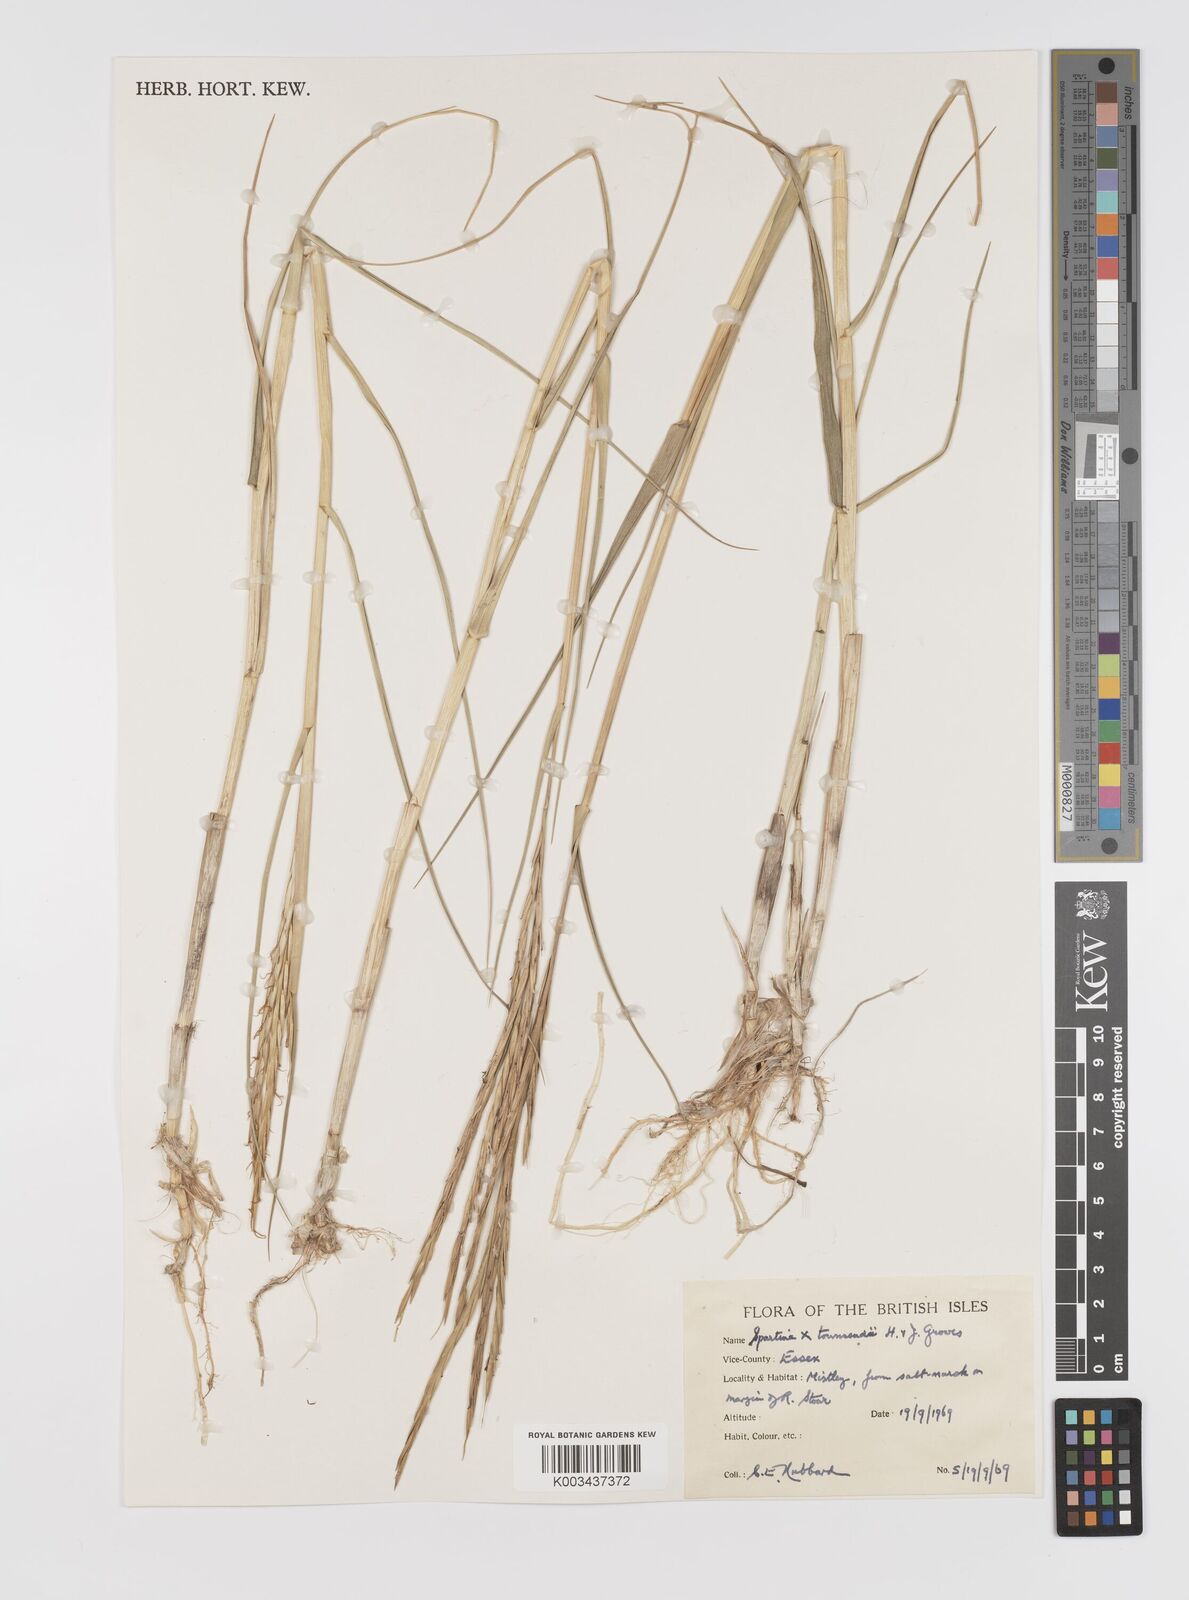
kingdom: Plantae
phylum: Tracheophyta
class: Liliopsida
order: Poales
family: Poaceae
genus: Sporobolus
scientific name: Sporobolus townsendii
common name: Townsend's cordgrass
